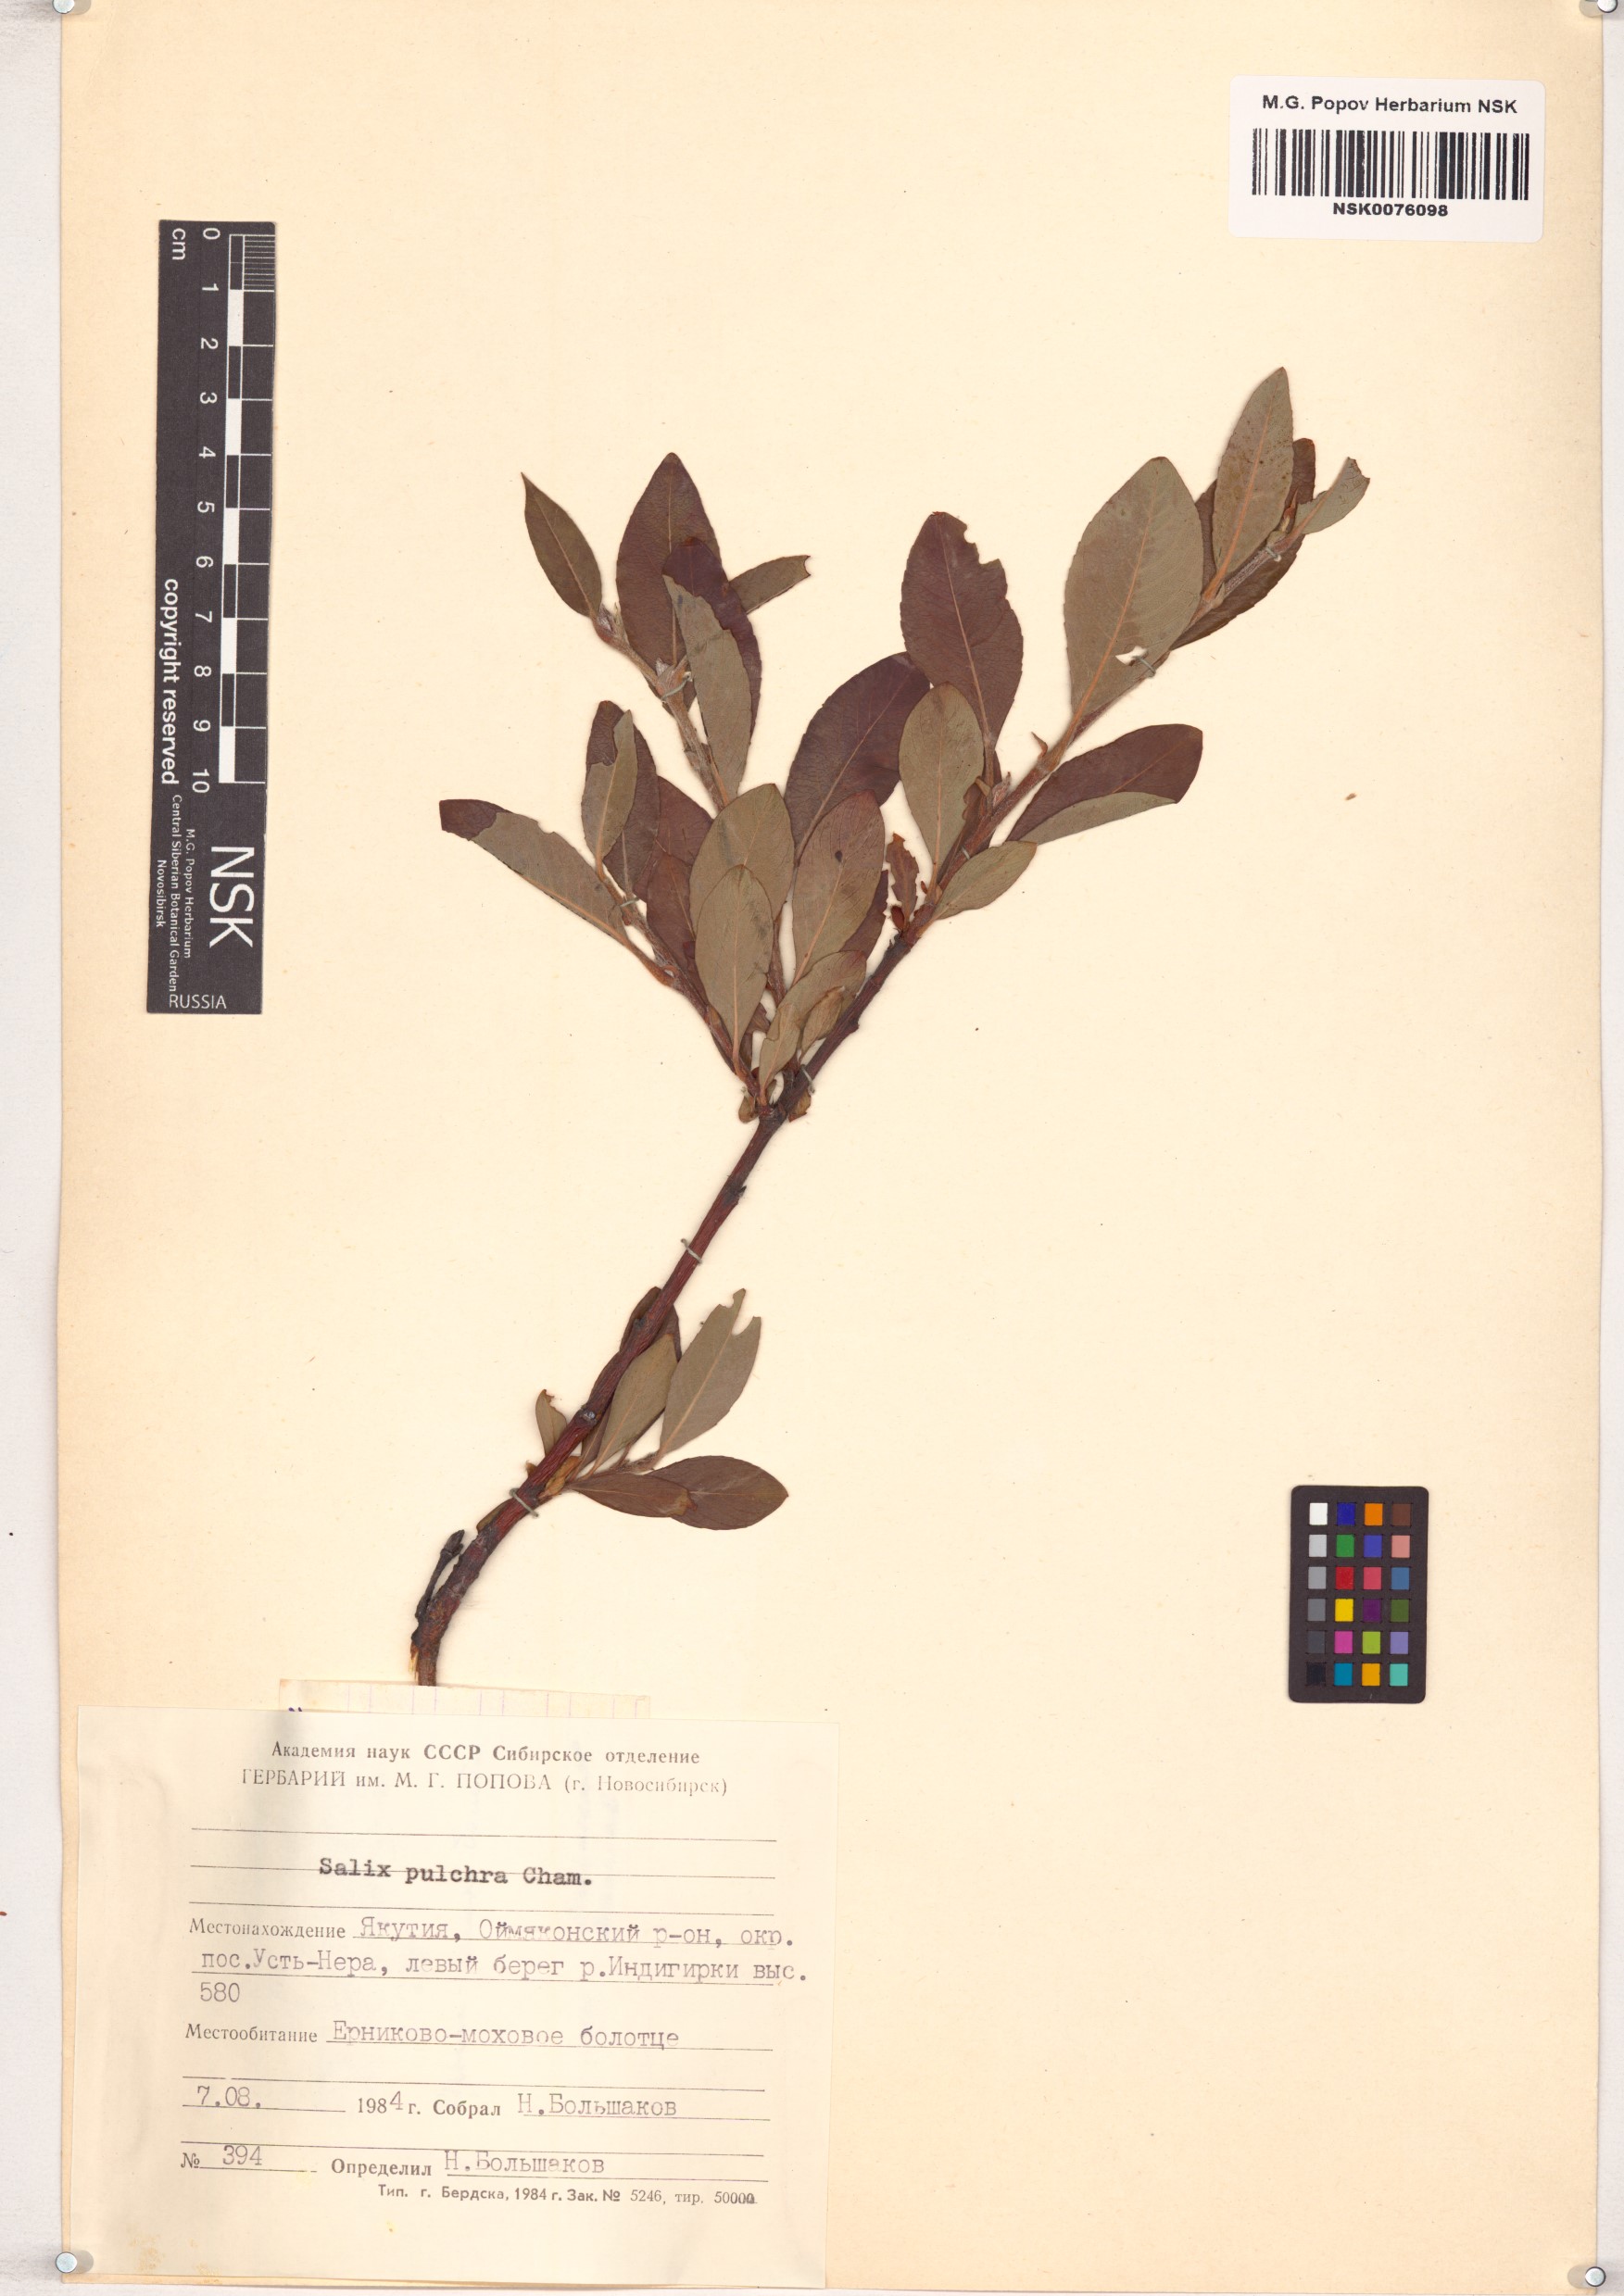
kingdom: Plantae
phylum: Tracheophyta
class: Magnoliopsida
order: Malpighiales
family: Salicaceae
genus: Salix
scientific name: Salix pulchra
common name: Diamond-leaved willow
